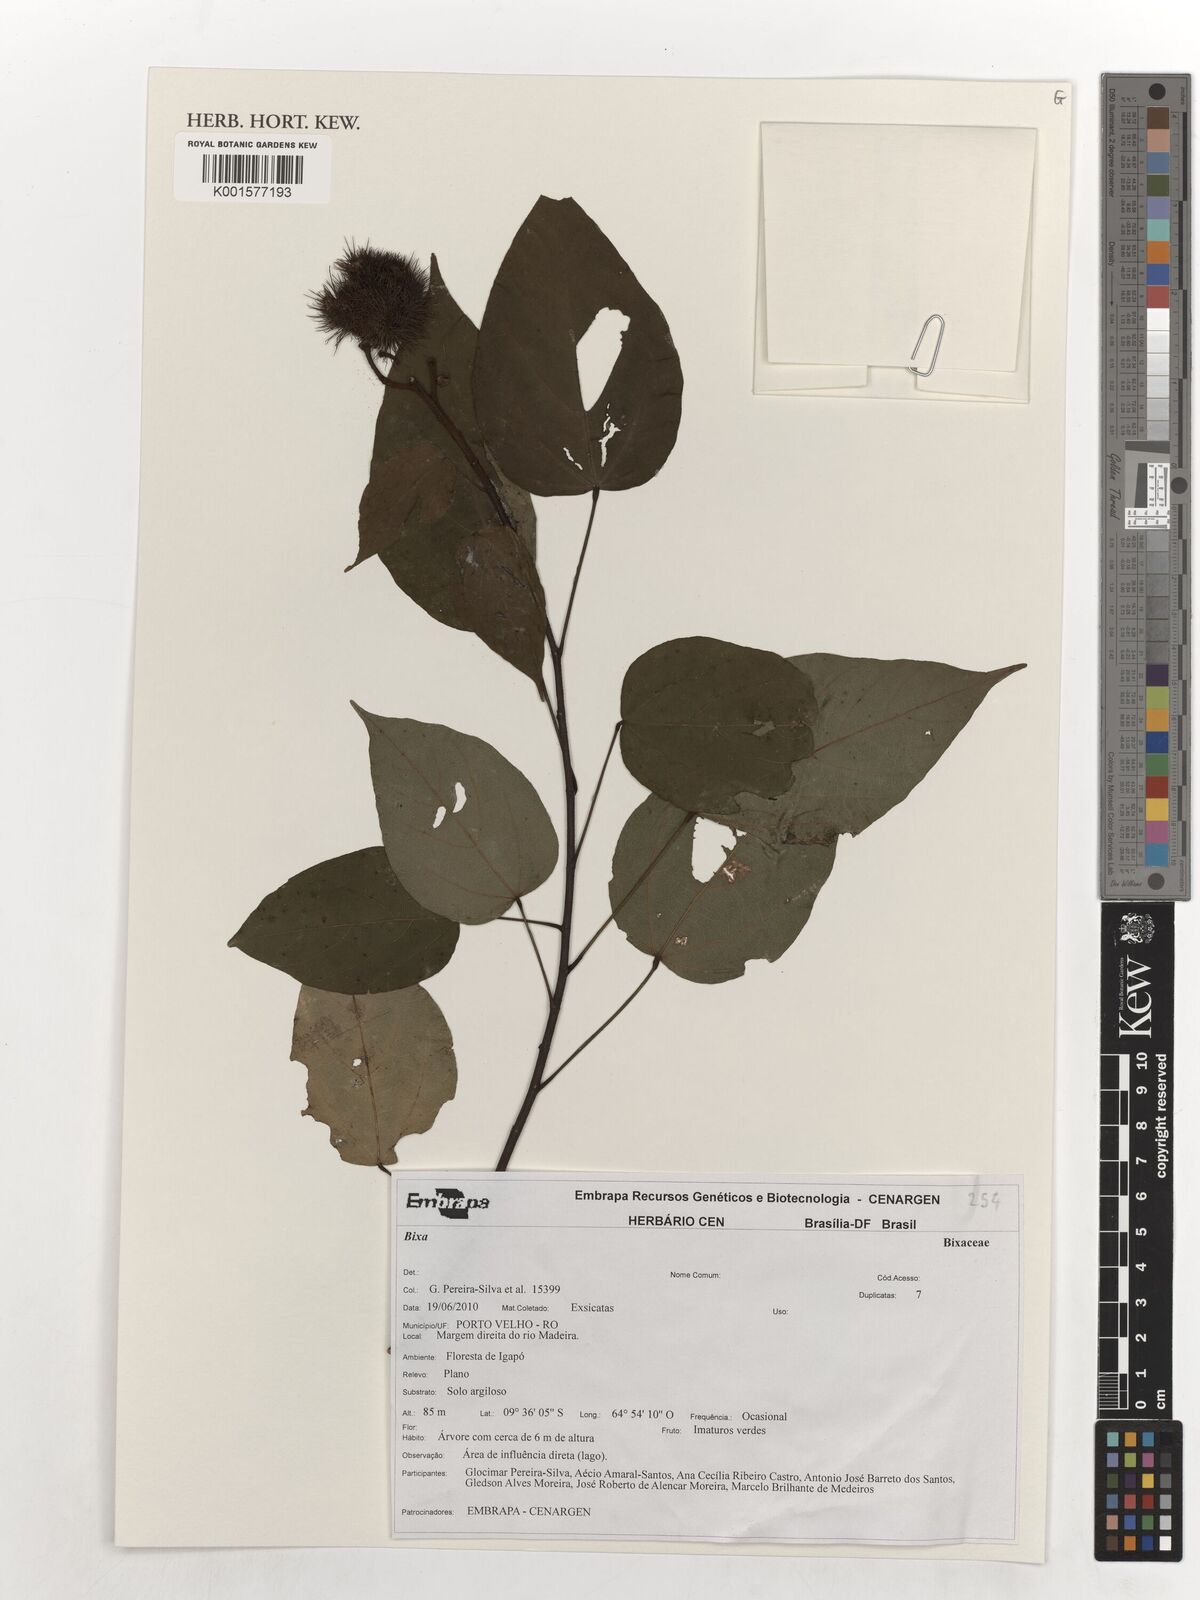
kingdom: Plantae
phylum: Tracheophyta
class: Magnoliopsida
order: Malvales
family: Bixaceae
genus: Bixa
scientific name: Bixa
